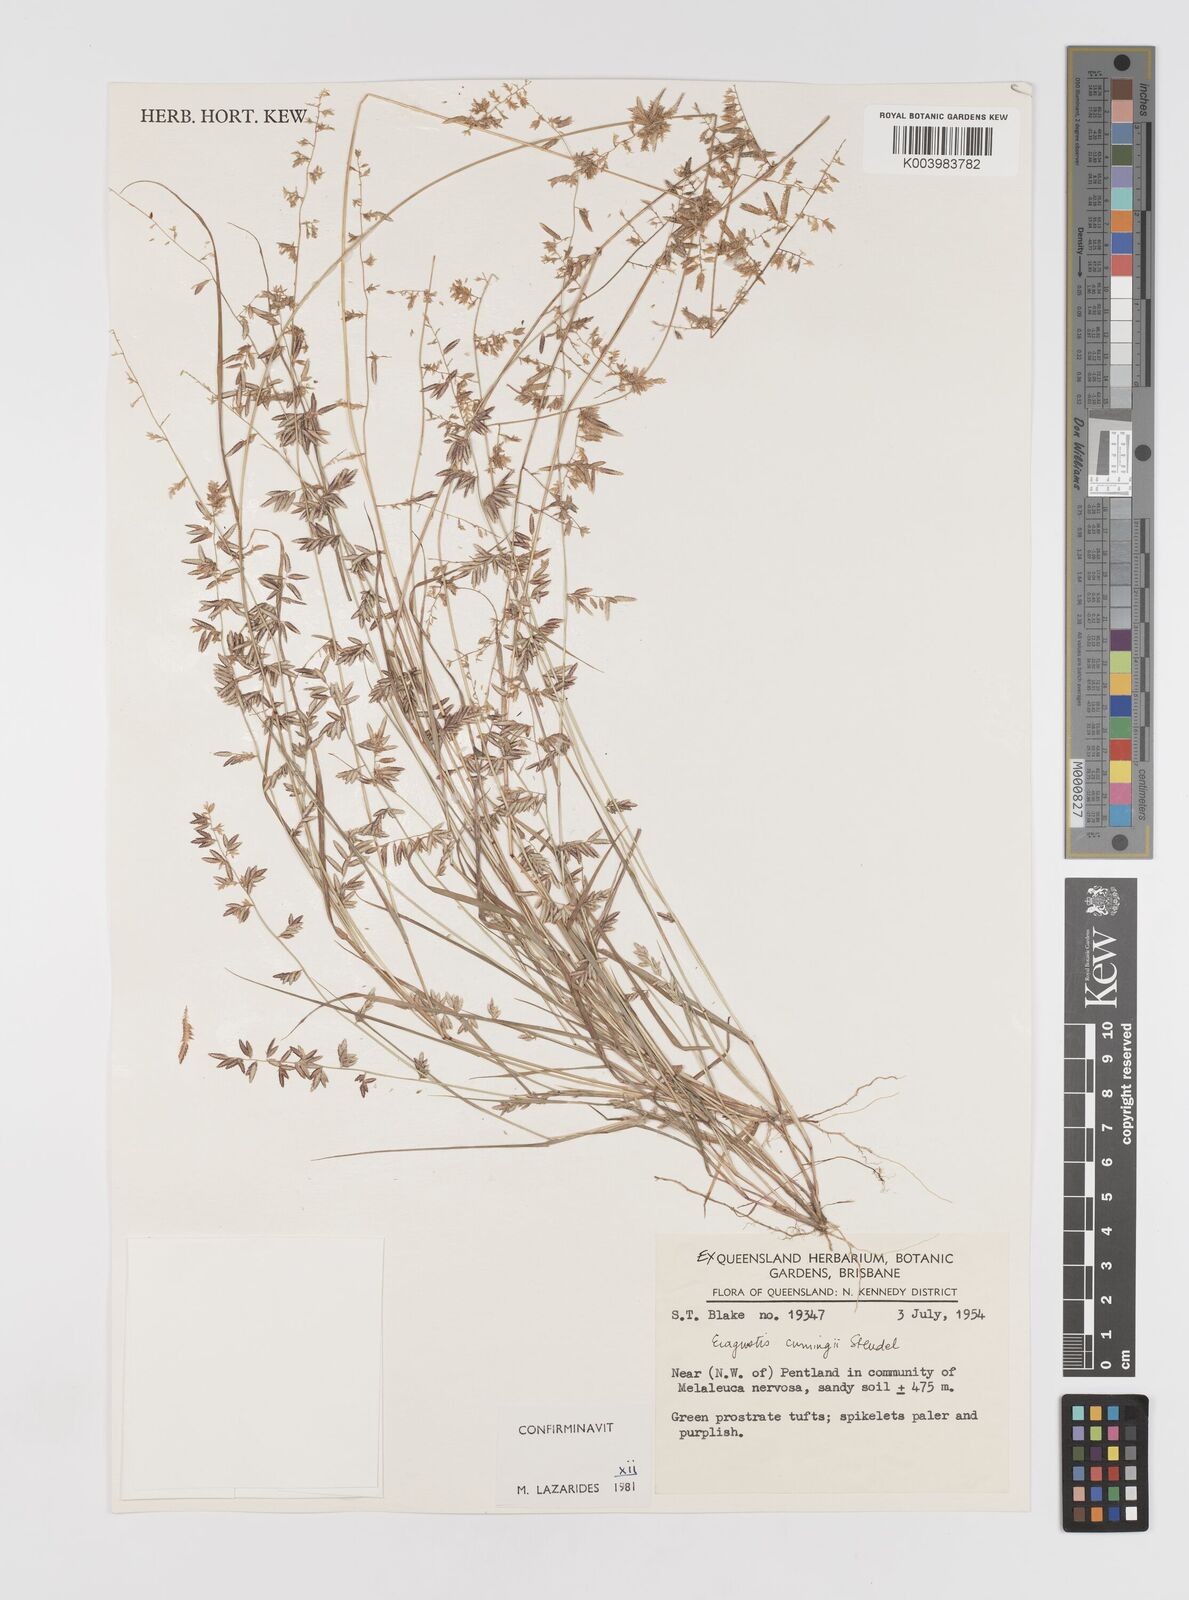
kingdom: Plantae
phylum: Tracheophyta
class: Liliopsida
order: Poales
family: Poaceae
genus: Eragrostis
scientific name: Eragrostis cumingii
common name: Cuming's lovegrass
